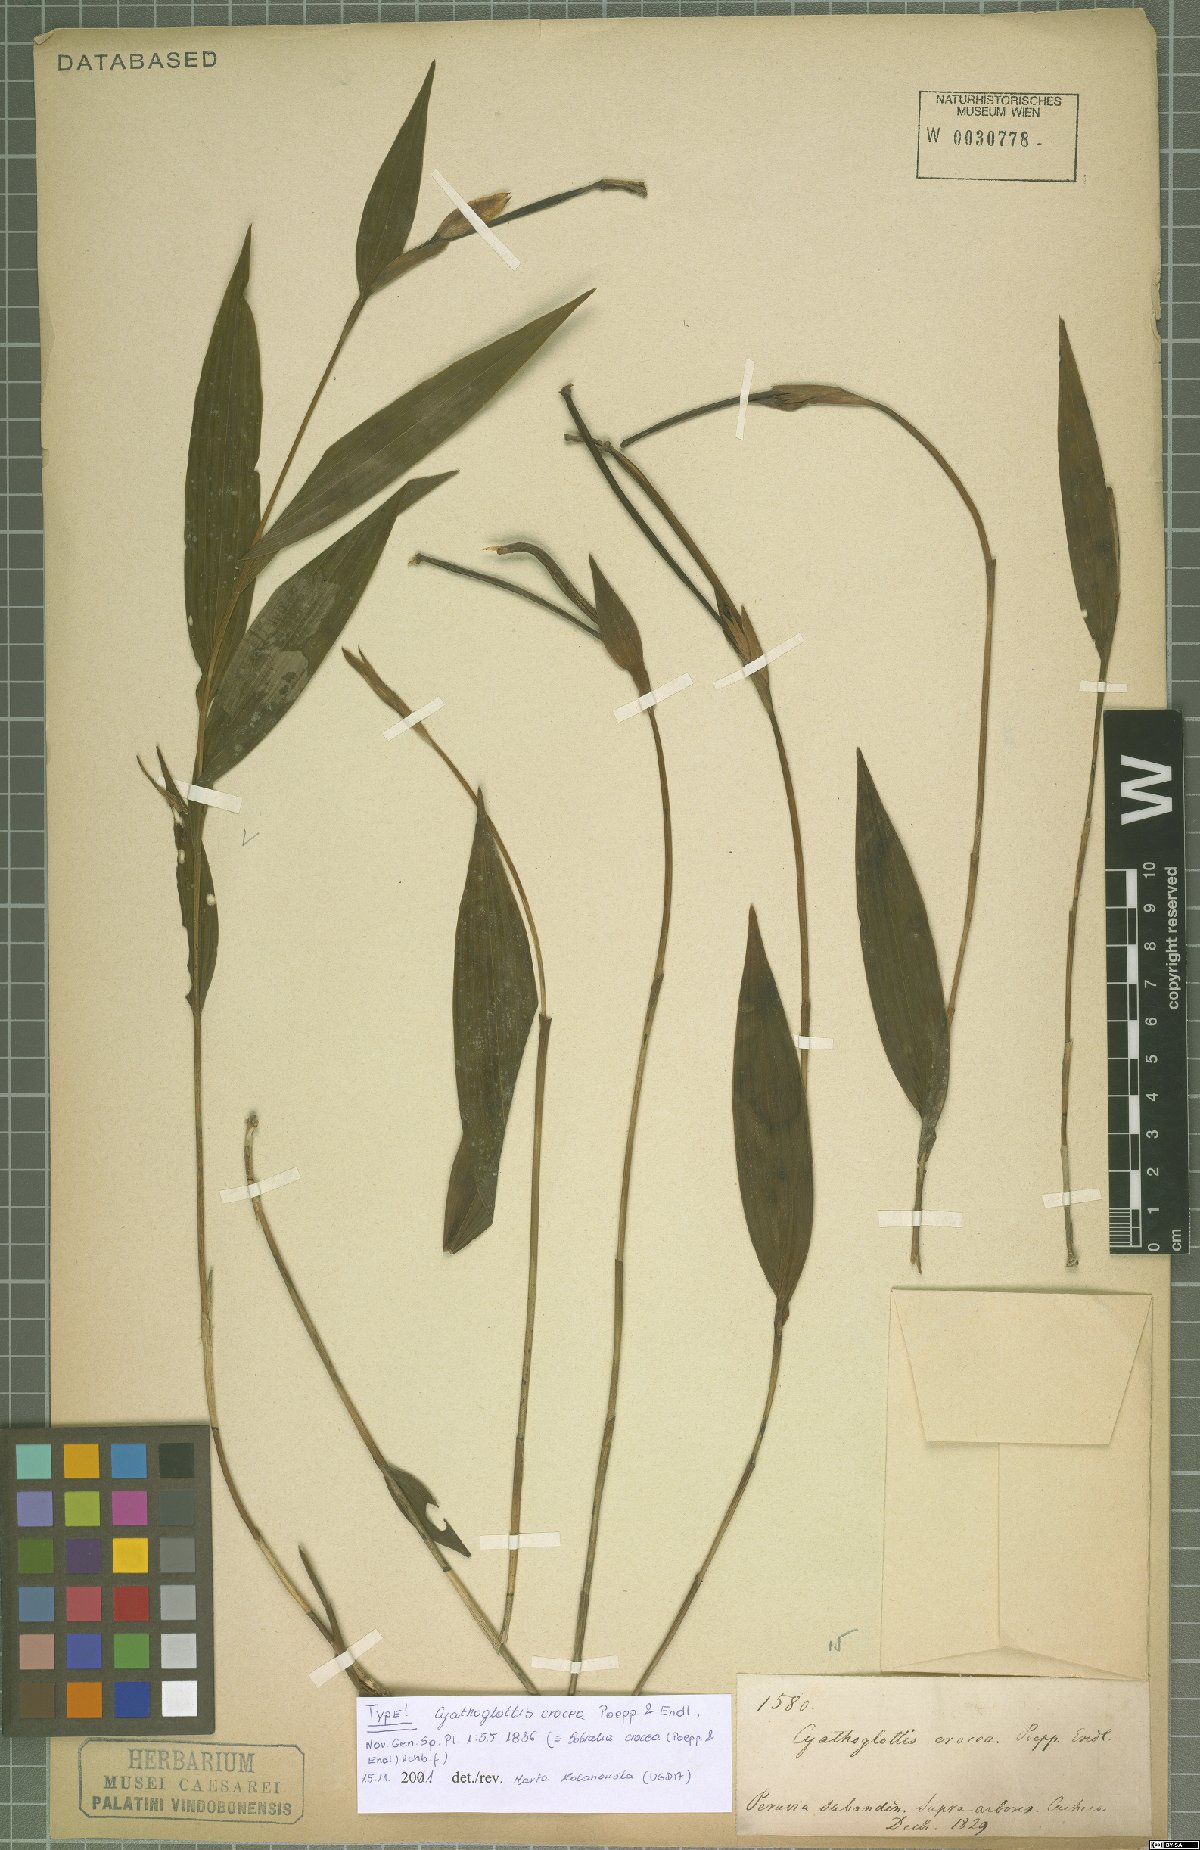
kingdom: Plantae
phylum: Tracheophyta
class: Liliopsida
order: Asparagales
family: Orchidaceae
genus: Sobralia
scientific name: Sobralia crocea
